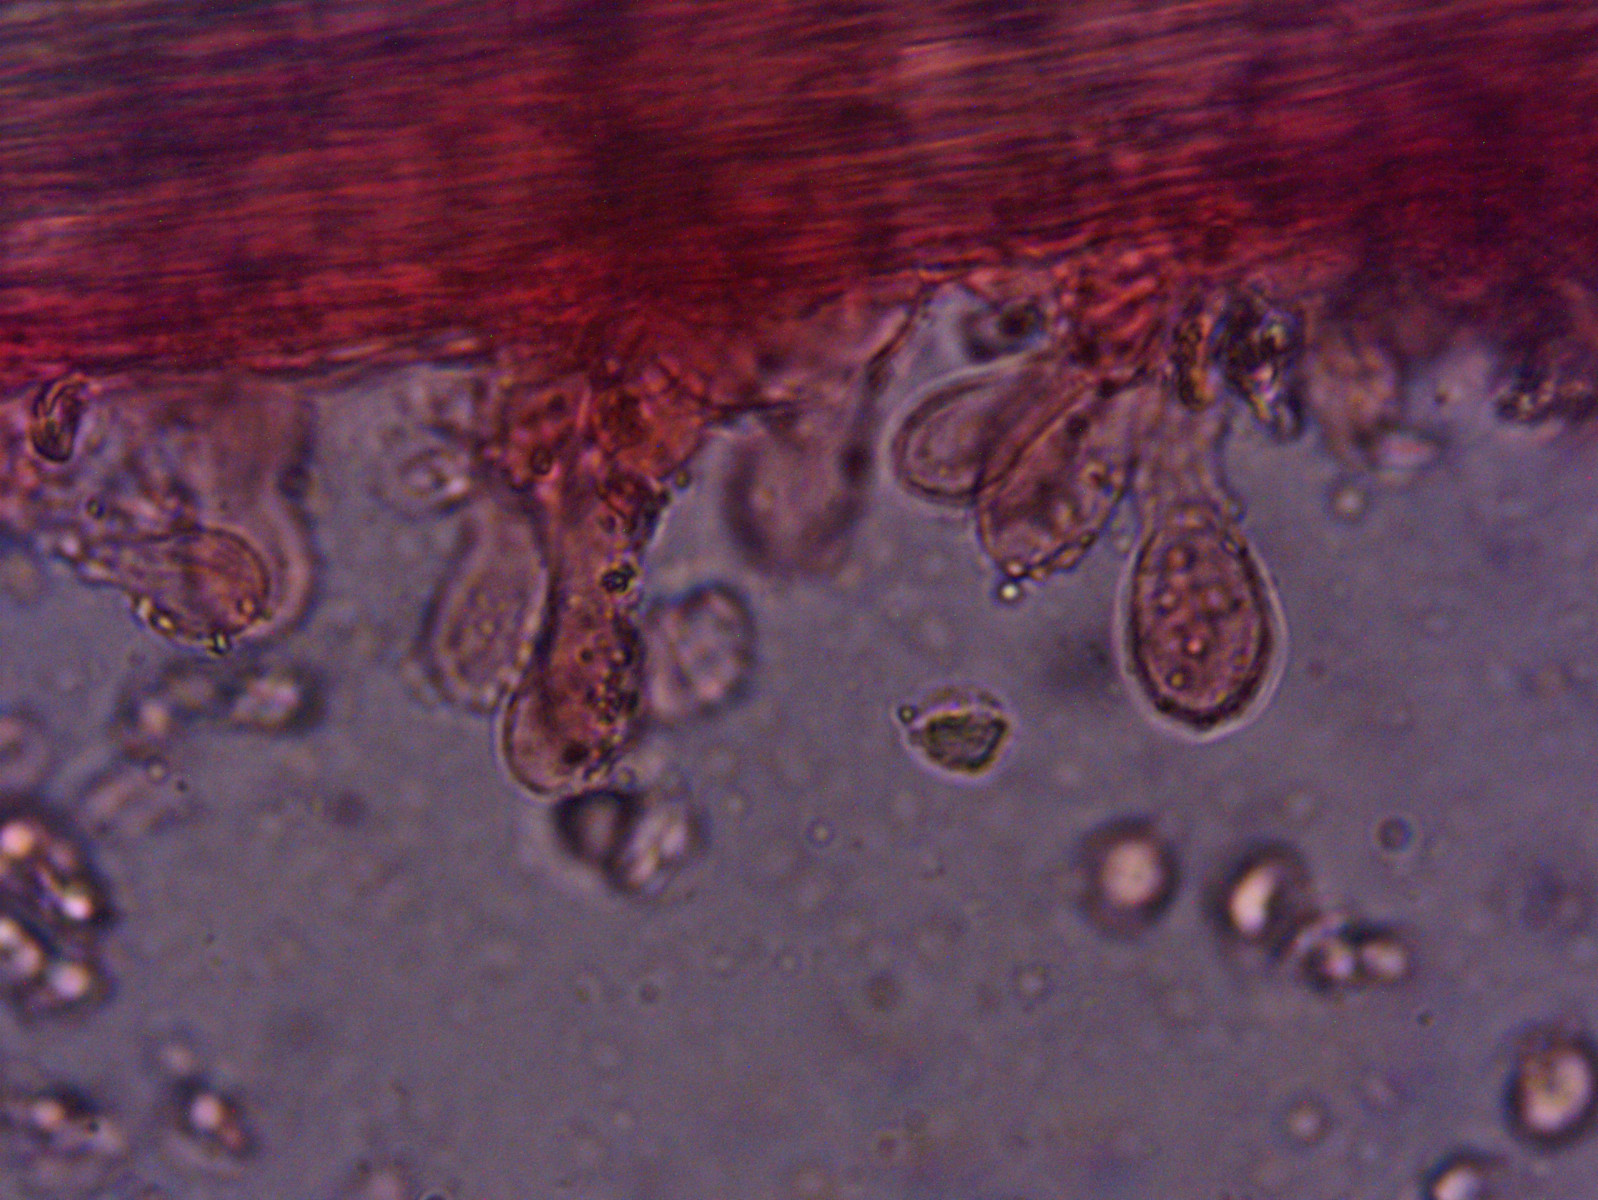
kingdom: Fungi
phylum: Basidiomycota
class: Agaricomycetes
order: Agaricales
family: Porotheleaceae
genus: Phloeomana
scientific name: Phloeomana speirea
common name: kvist-huesvamp
